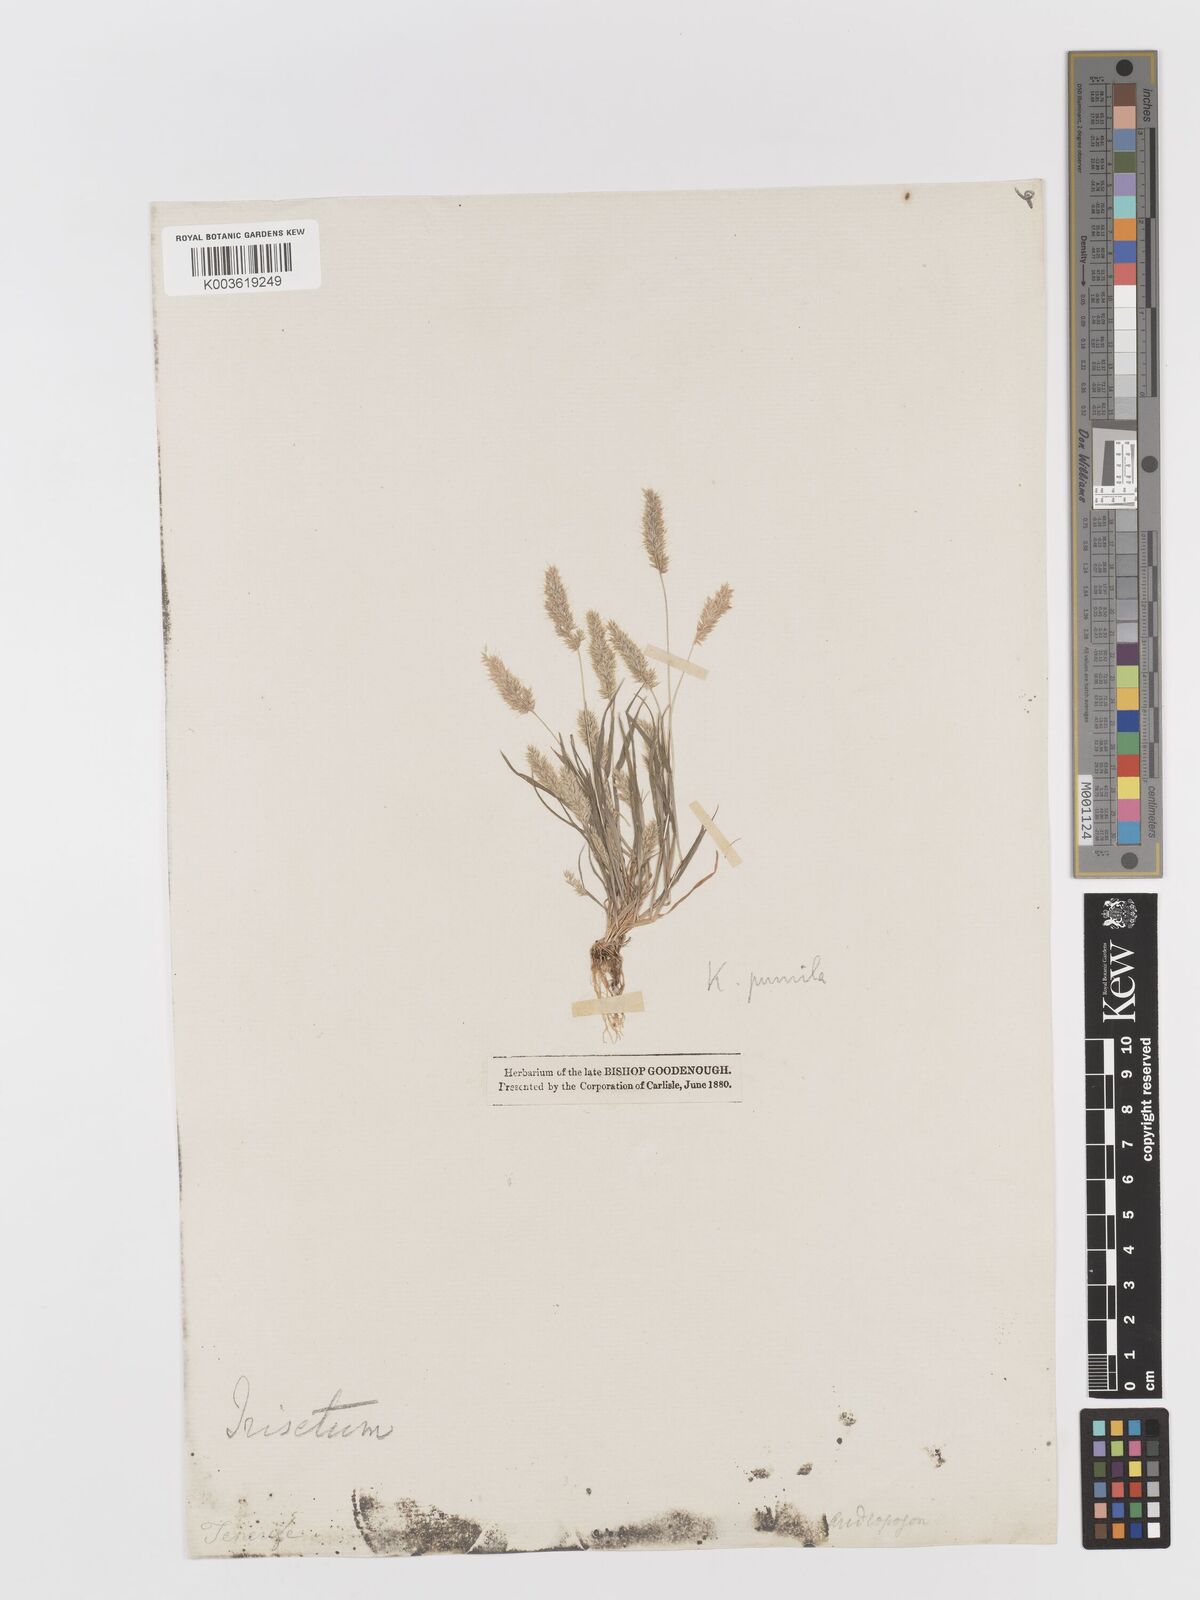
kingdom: Plantae
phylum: Tracheophyta
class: Liliopsida
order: Poales
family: Poaceae
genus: Rostraria
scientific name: Rostraria pumila
